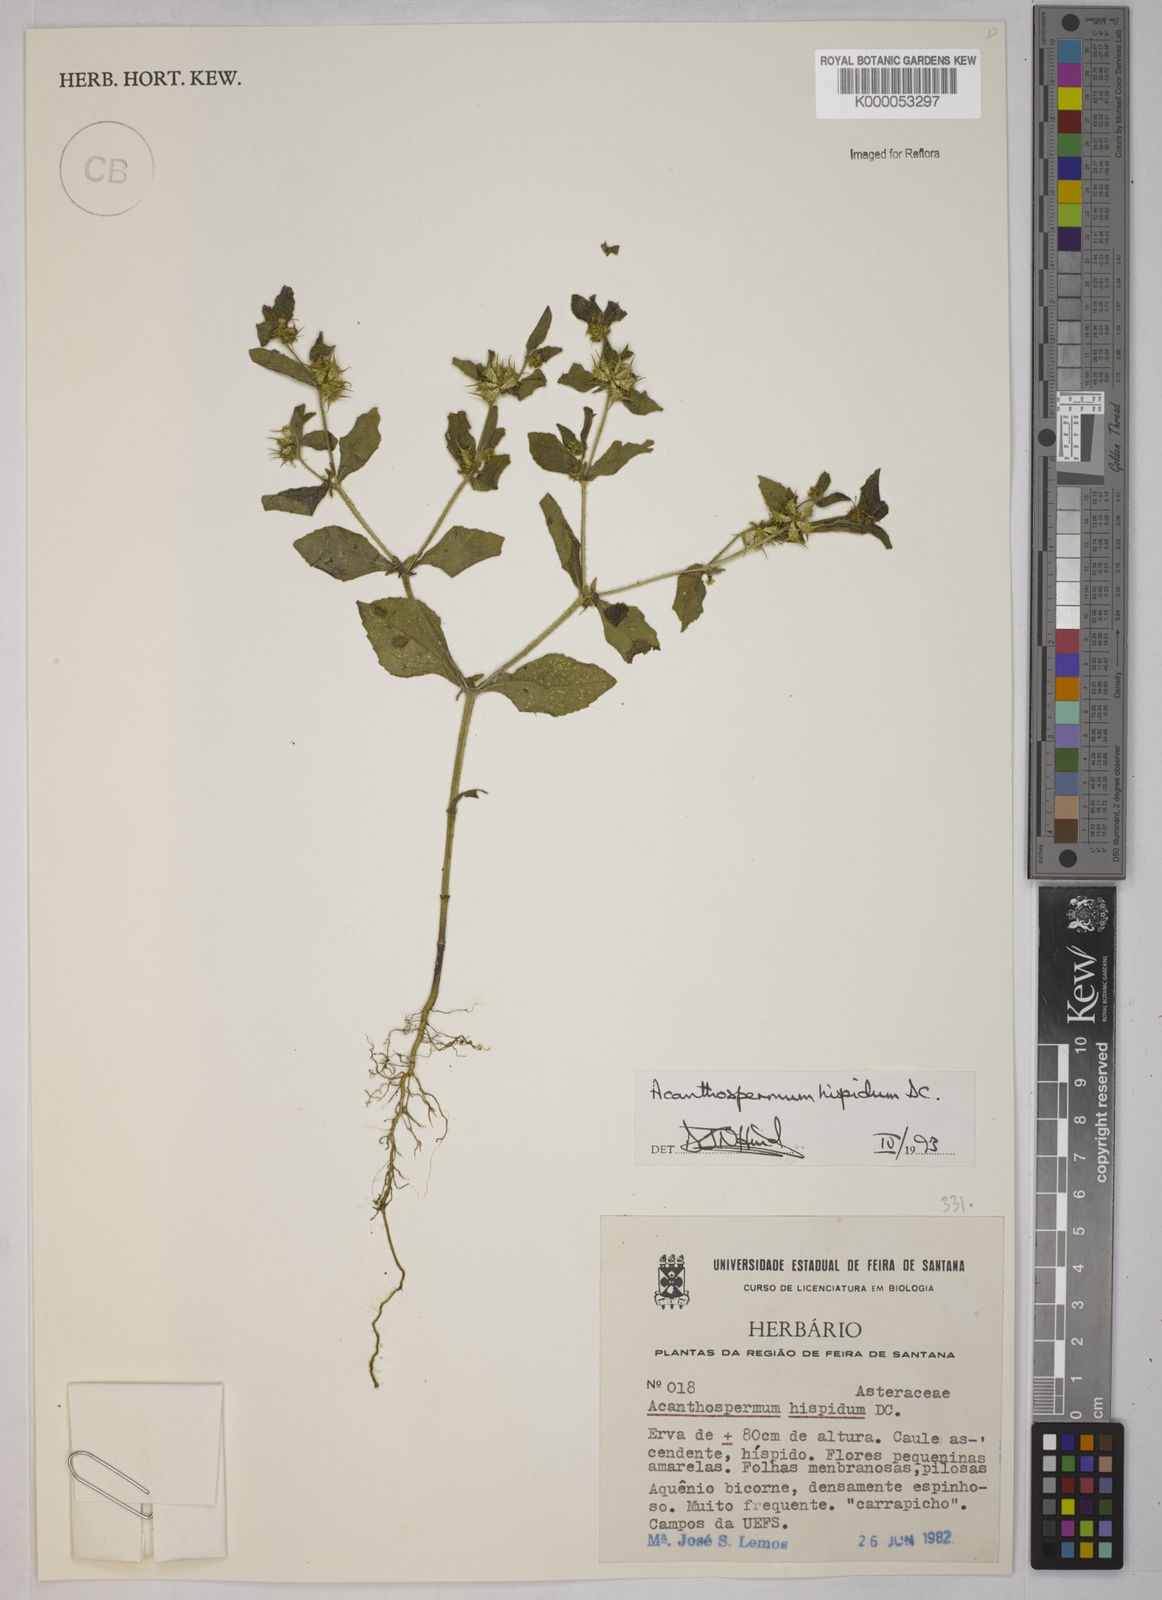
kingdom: Plantae
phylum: Tracheophyta
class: Magnoliopsida
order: Asterales
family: Asteraceae
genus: Acanthospermum
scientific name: Acanthospermum hispidum
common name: Hispid starbur
